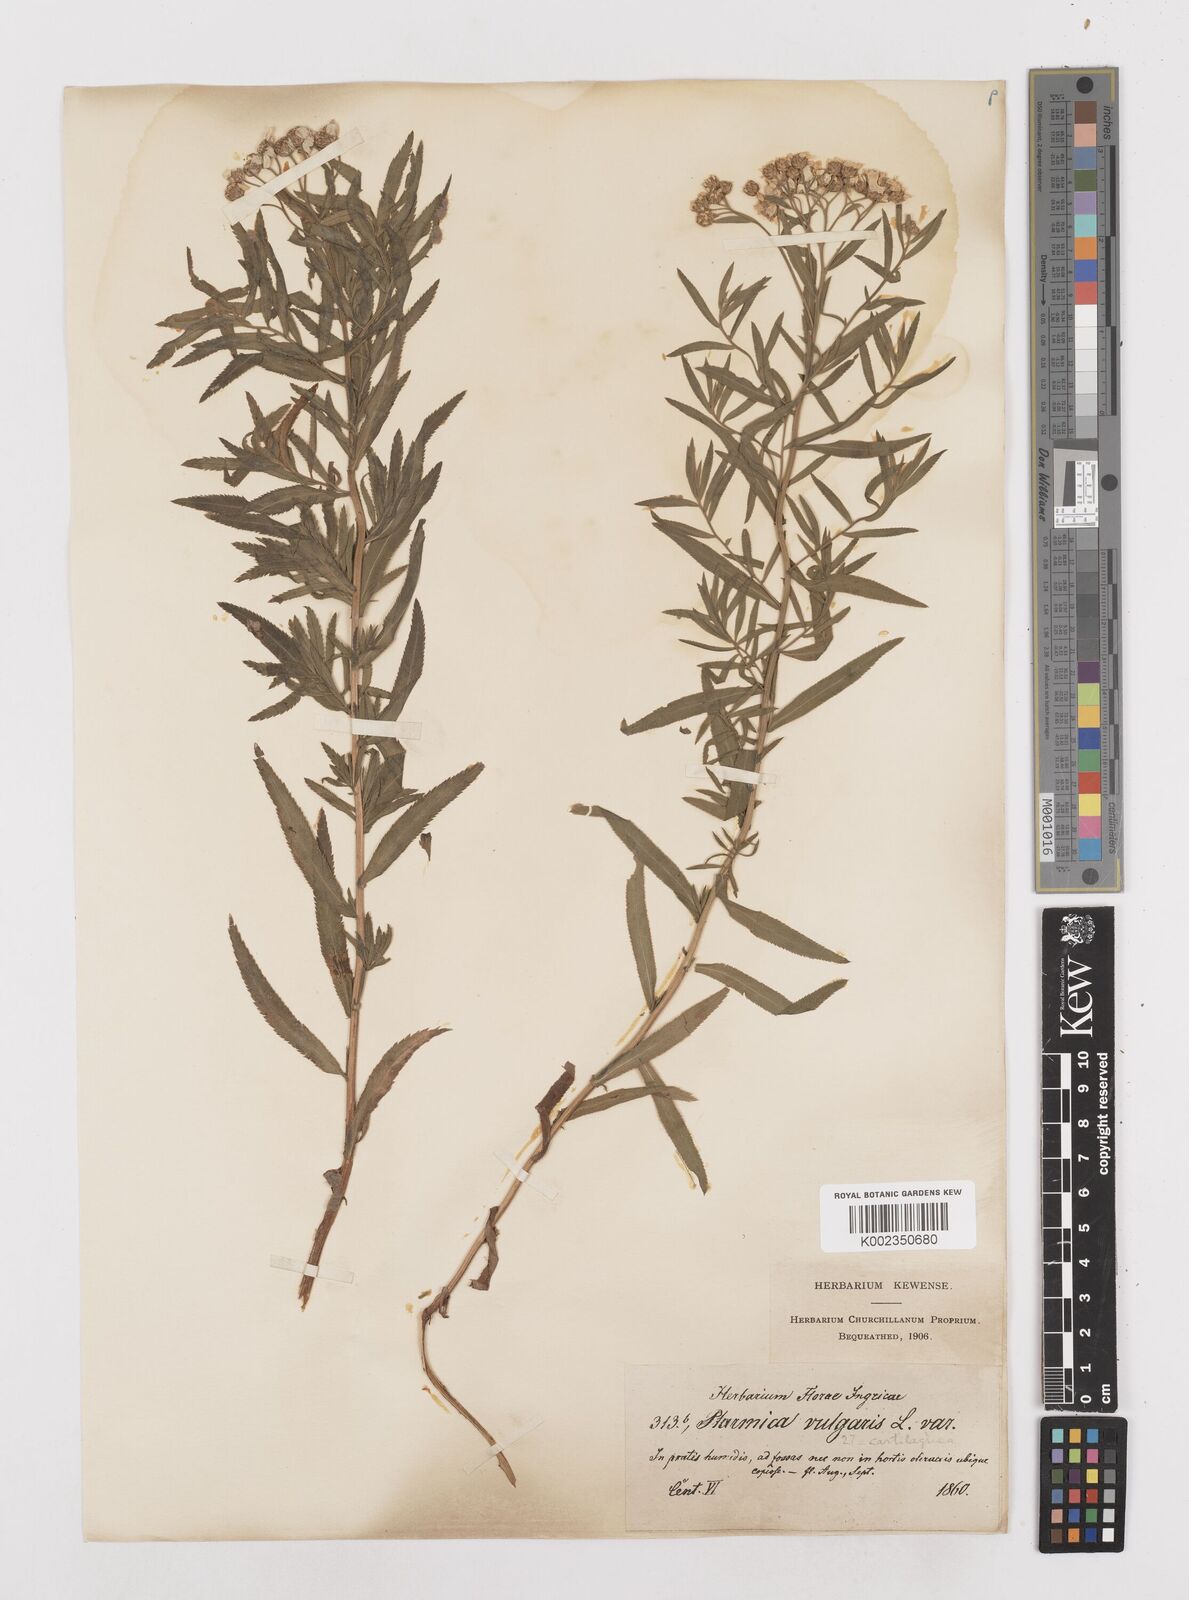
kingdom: Plantae
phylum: Tracheophyta
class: Magnoliopsida
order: Asterales
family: Asteraceae
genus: Achillea
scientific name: Achillea salicifolia
